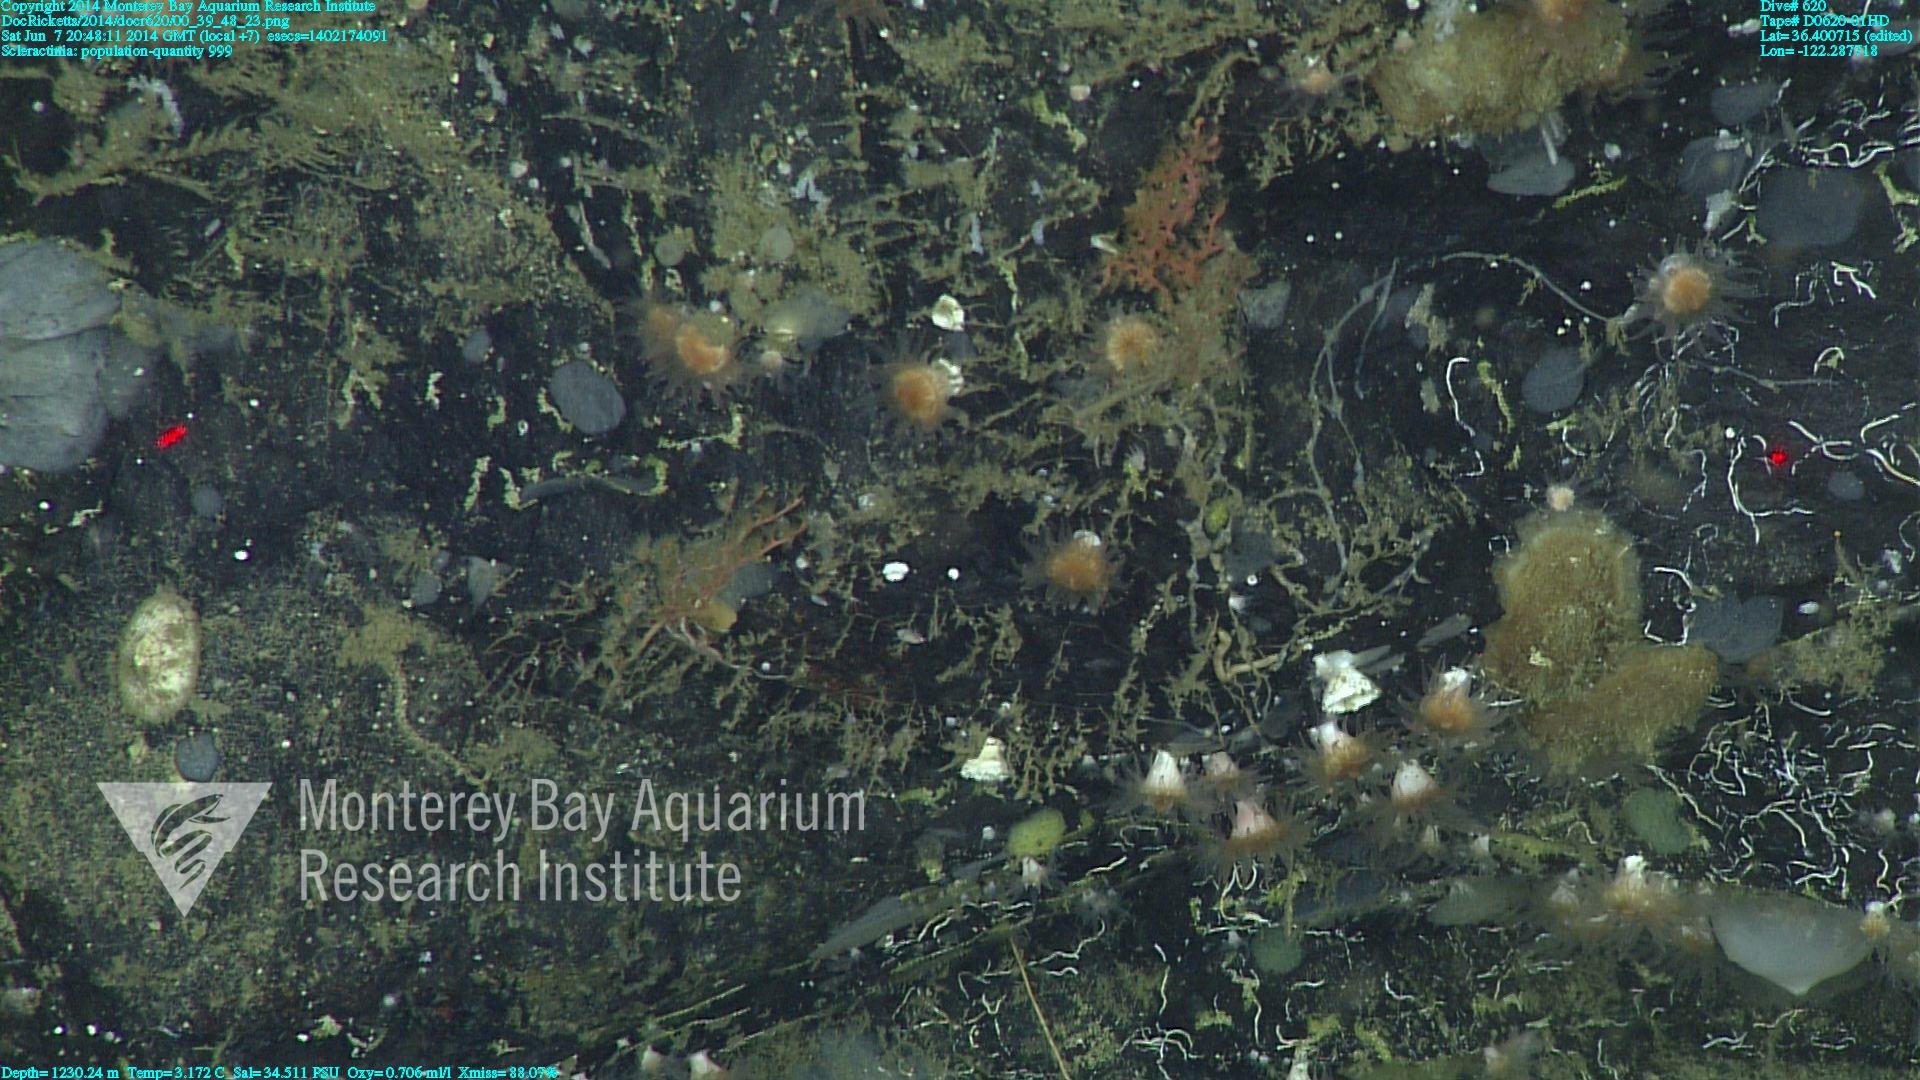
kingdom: Animalia
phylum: Cnidaria
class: Anthozoa
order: Scleractinia
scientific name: Scleractinia
